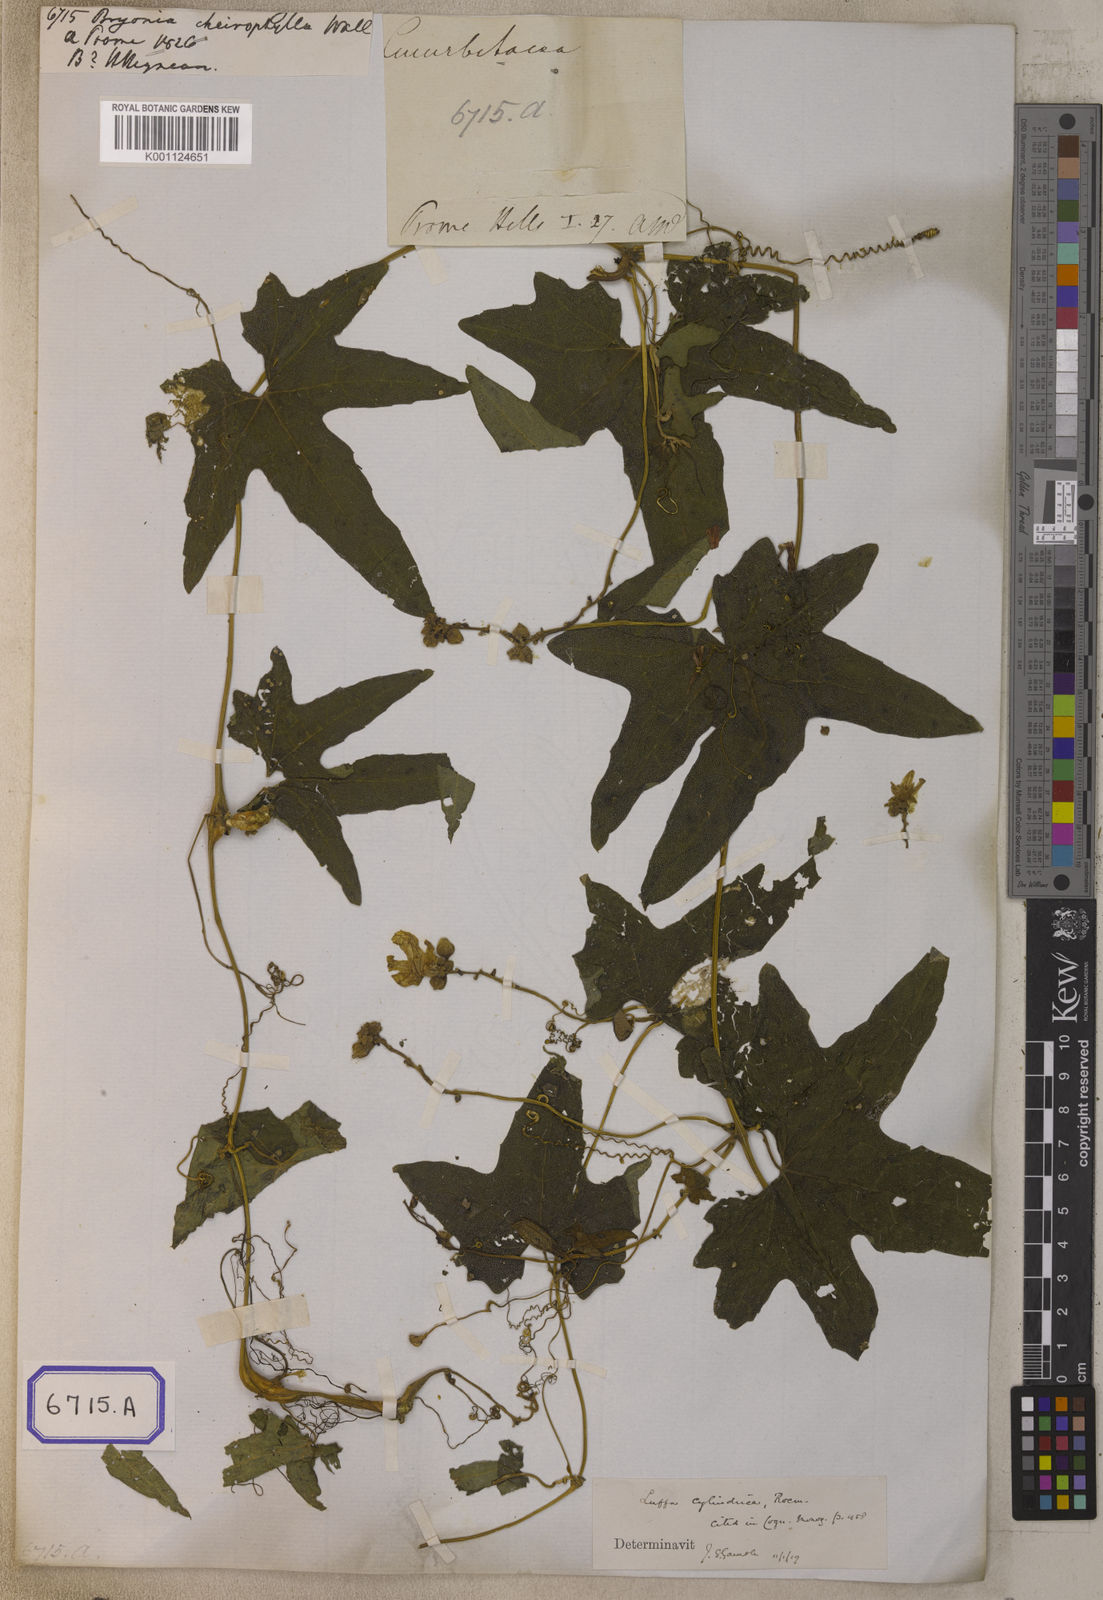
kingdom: Plantae
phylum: Tracheophyta
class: Magnoliopsida
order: Cucurbitales
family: Cucurbitaceae
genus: Luffa
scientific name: Luffa aegyptiaca
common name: Sponge gourd
